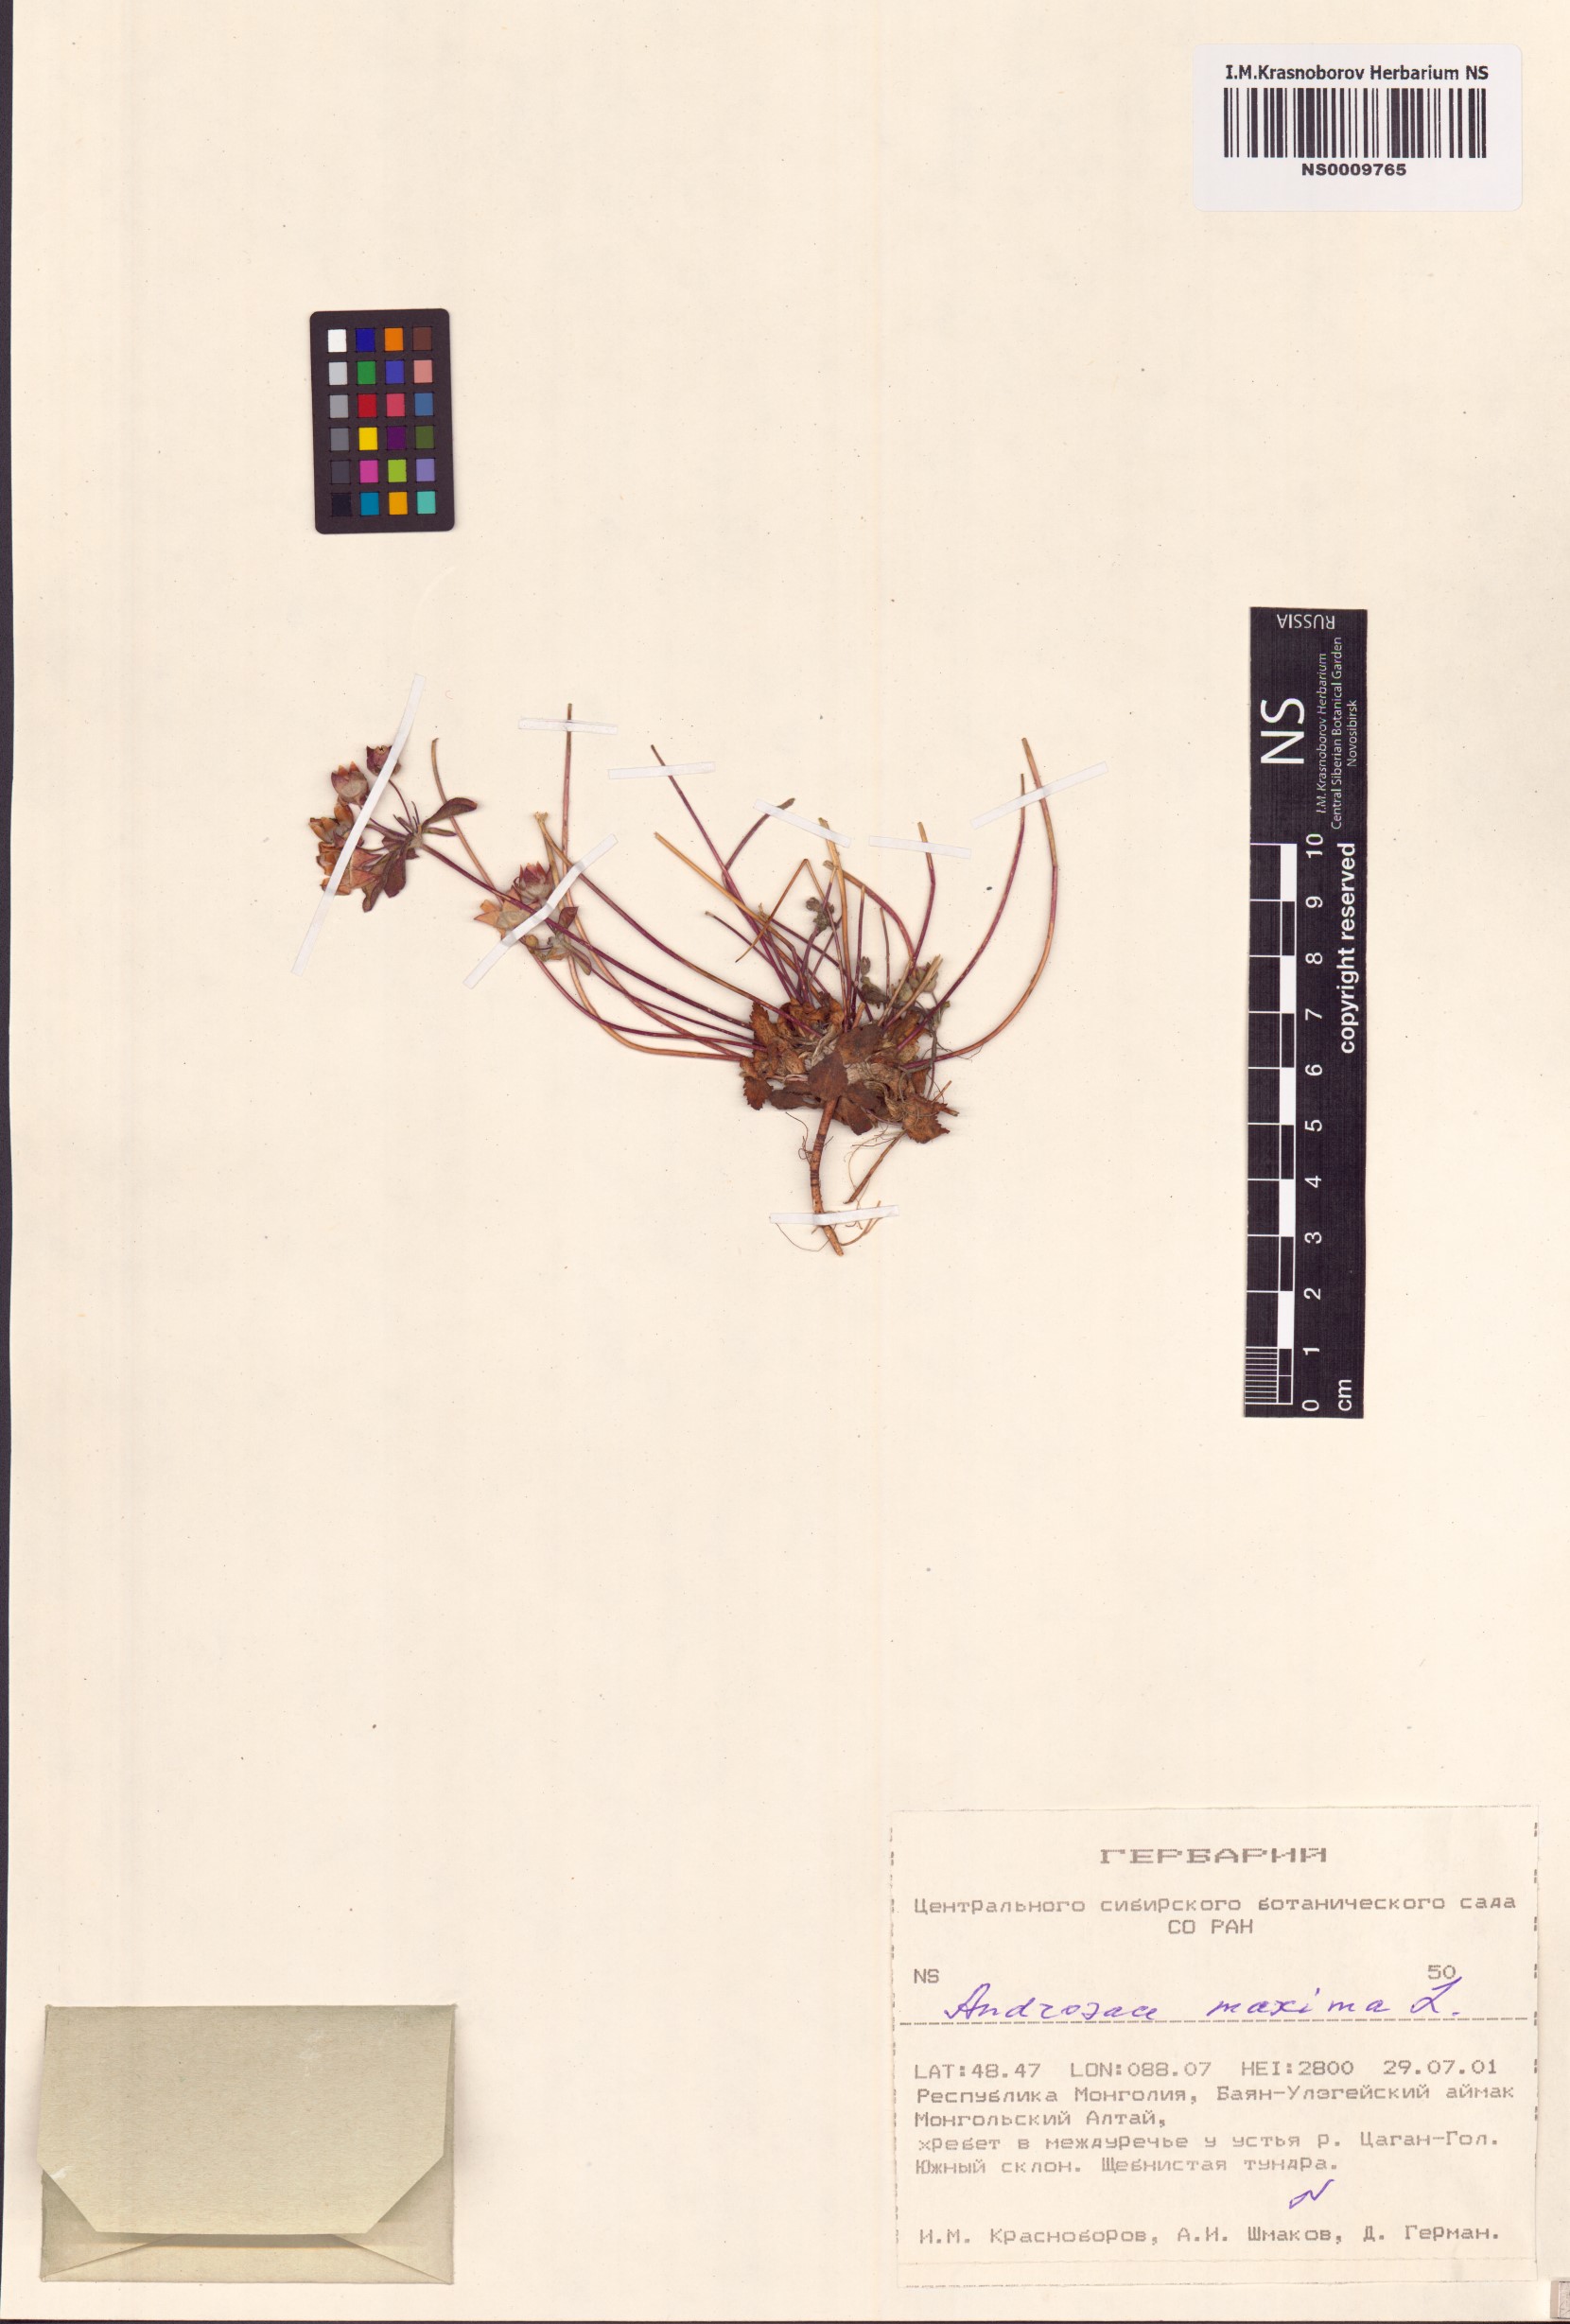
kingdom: Plantae
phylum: Tracheophyta
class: Magnoliopsida
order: Ericales
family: Primulaceae
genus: Androsace
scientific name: Androsace maxima
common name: Annual androsace
